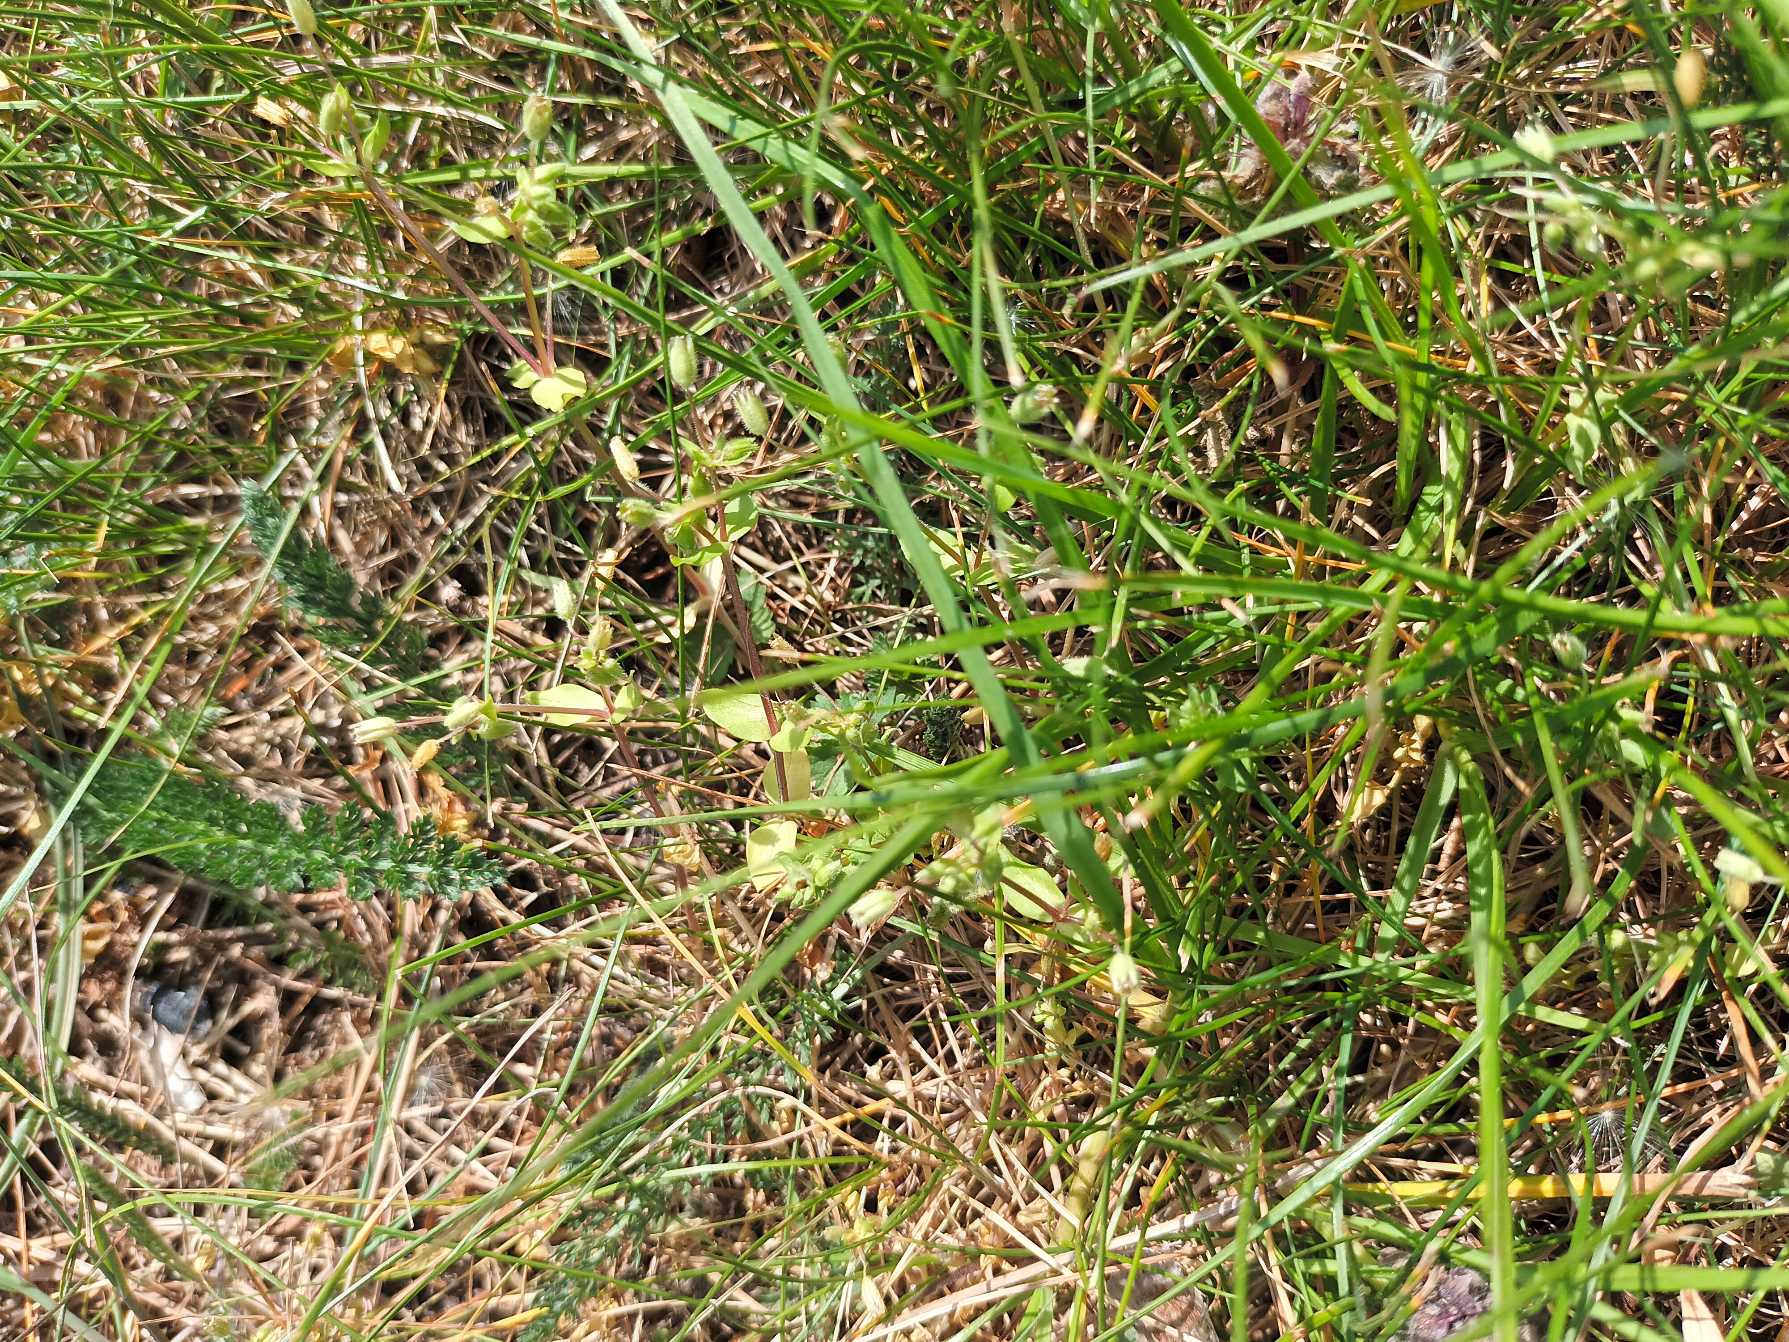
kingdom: Plantae
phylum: Tracheophyta
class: Magnoliopsida
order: Caryophyllales
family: Caryophyllaceae
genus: Stellaria
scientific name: Stellaria apetala
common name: Bleg fuglegræs
